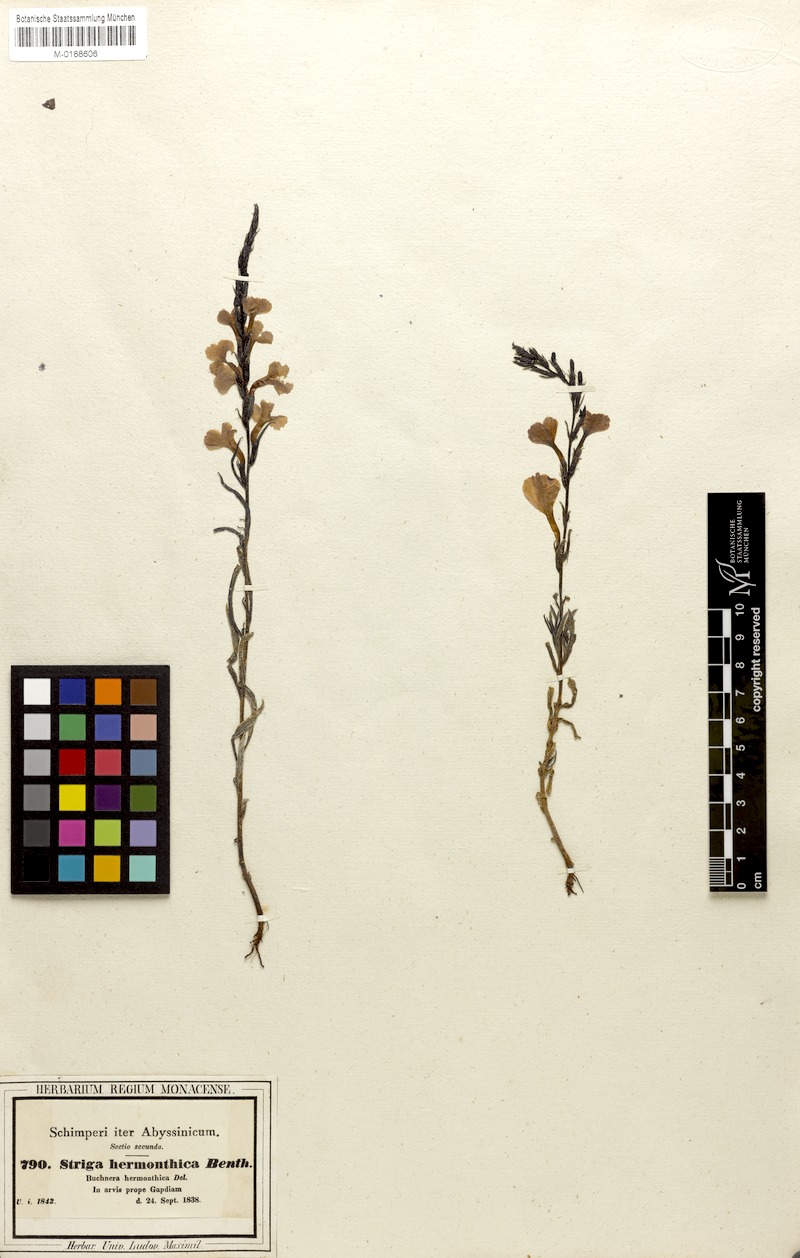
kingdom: Plantae
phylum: Tracheophyta
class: Magnoliopsida
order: Lamiales
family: Orobanchaceae
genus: Striga
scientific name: Striga hermonthica
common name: Purple witchweed
